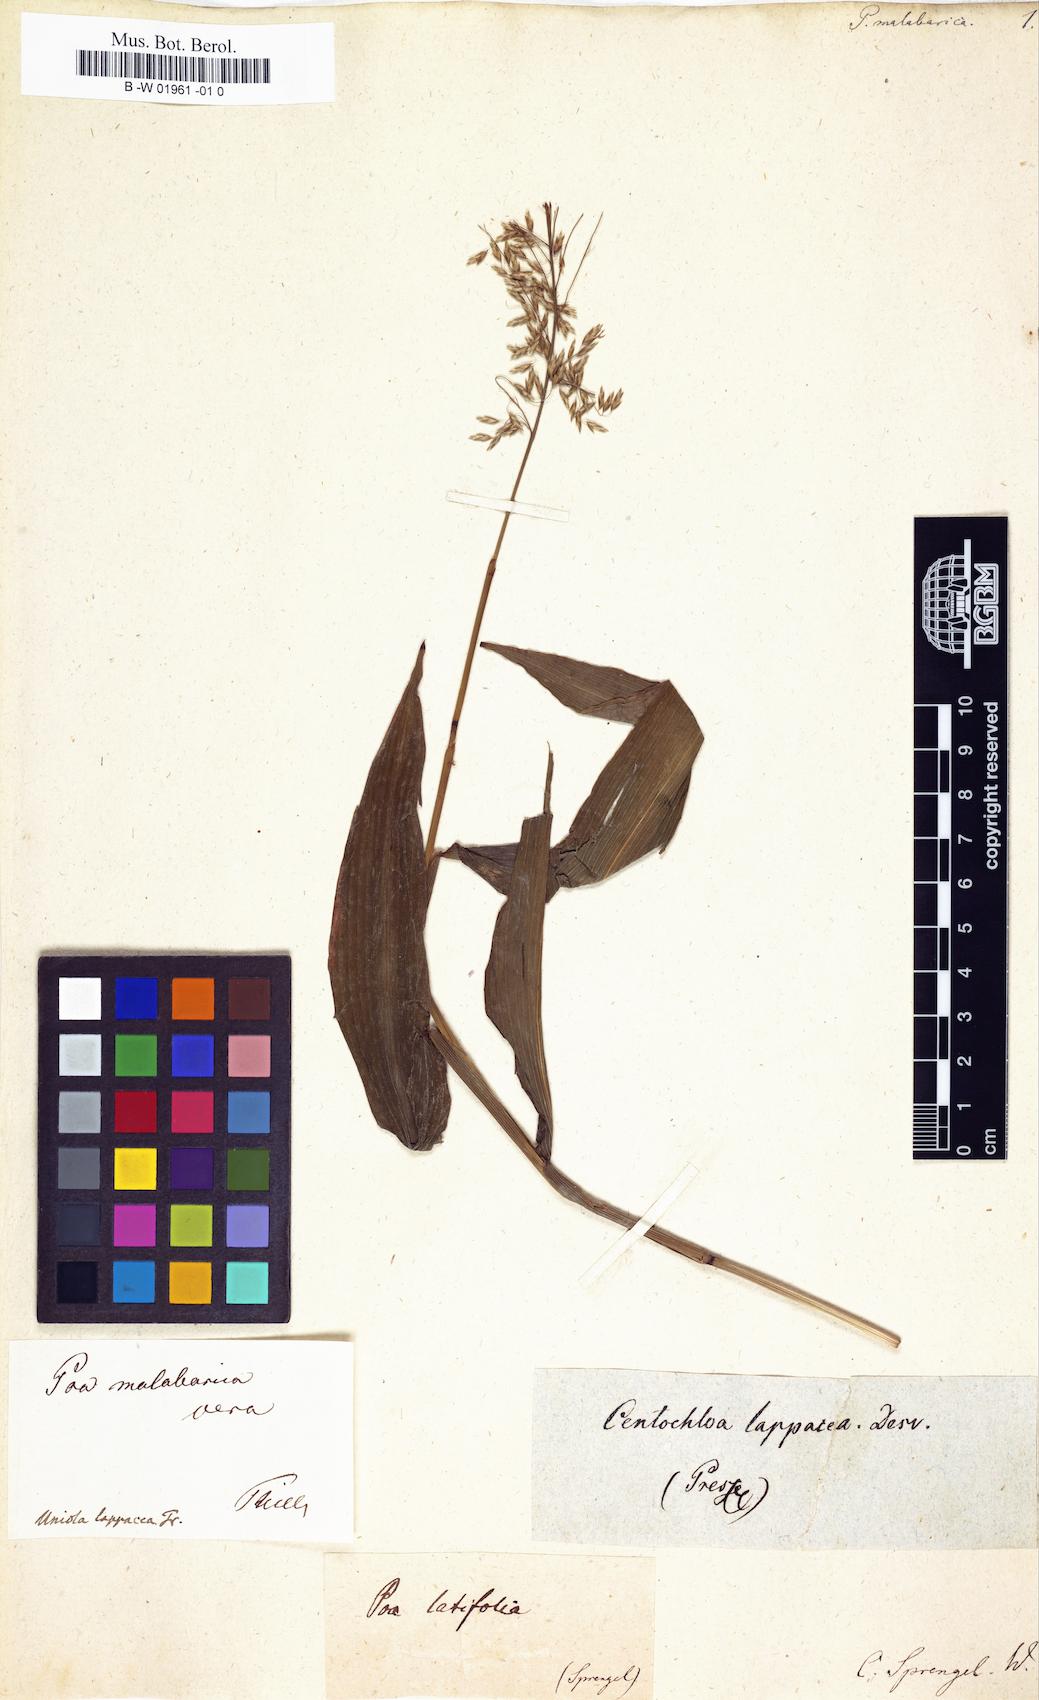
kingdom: Plantae
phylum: Tracheophyta
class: Liliopsida
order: Poales
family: Poaceae
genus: Poa
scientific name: Poa malabarica
